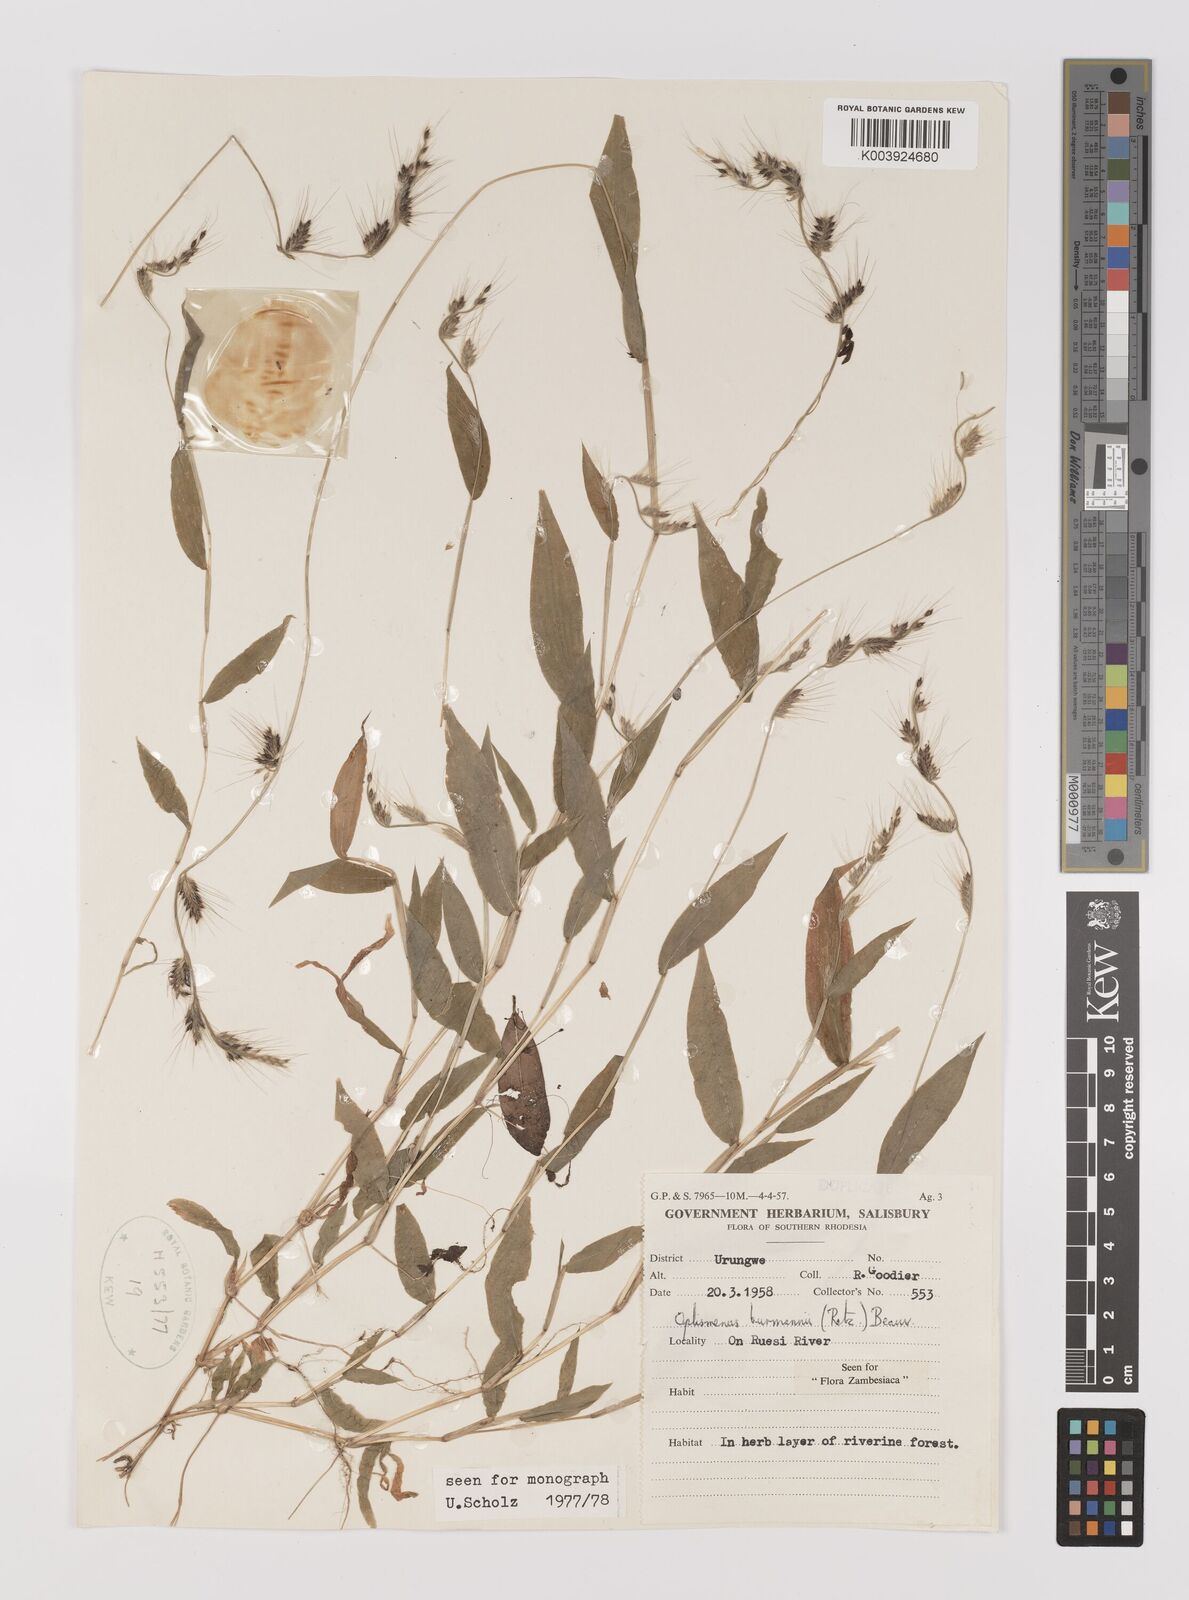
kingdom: Plantae
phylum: Tracheophyta
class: Liliopsida
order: Poales
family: Poaceae
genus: Oplismenus
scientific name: Oplismenus burmanni
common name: Burmann's basketgrass
